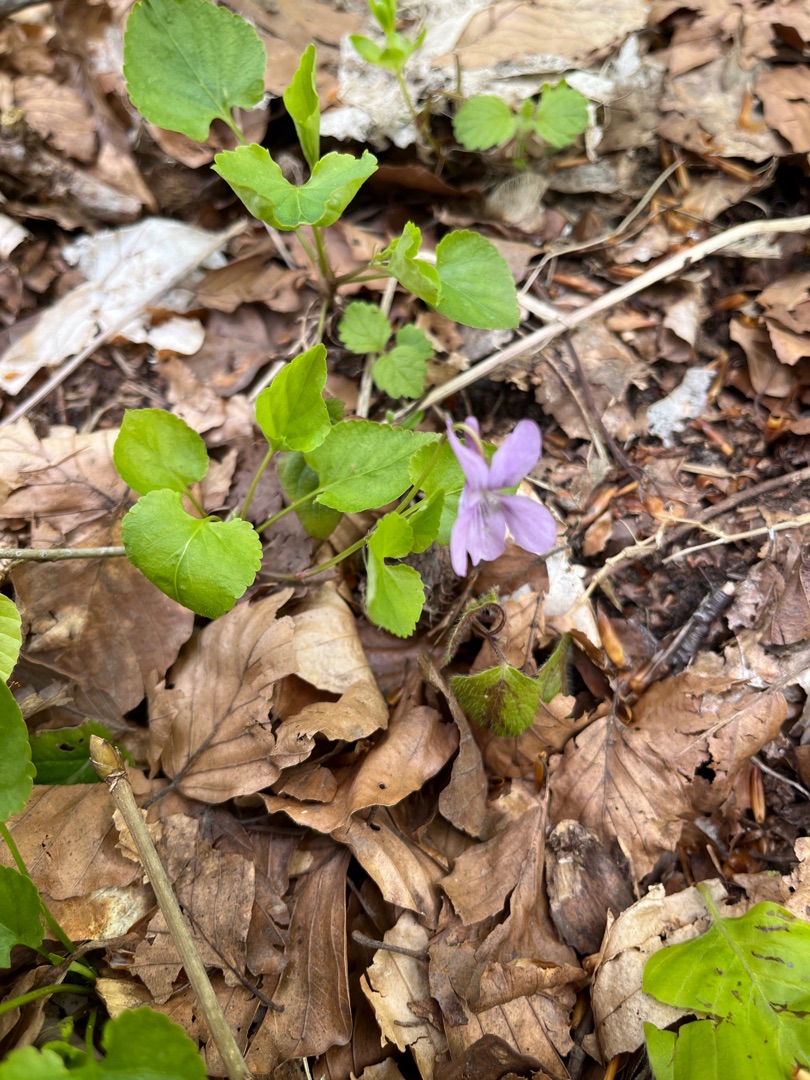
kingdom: Plantae
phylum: Tracheophyta
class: Magnoliopsida
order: Malpighiales
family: Violaceae
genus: Viola
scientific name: Viola reichenbachiana
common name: Skov-viol
